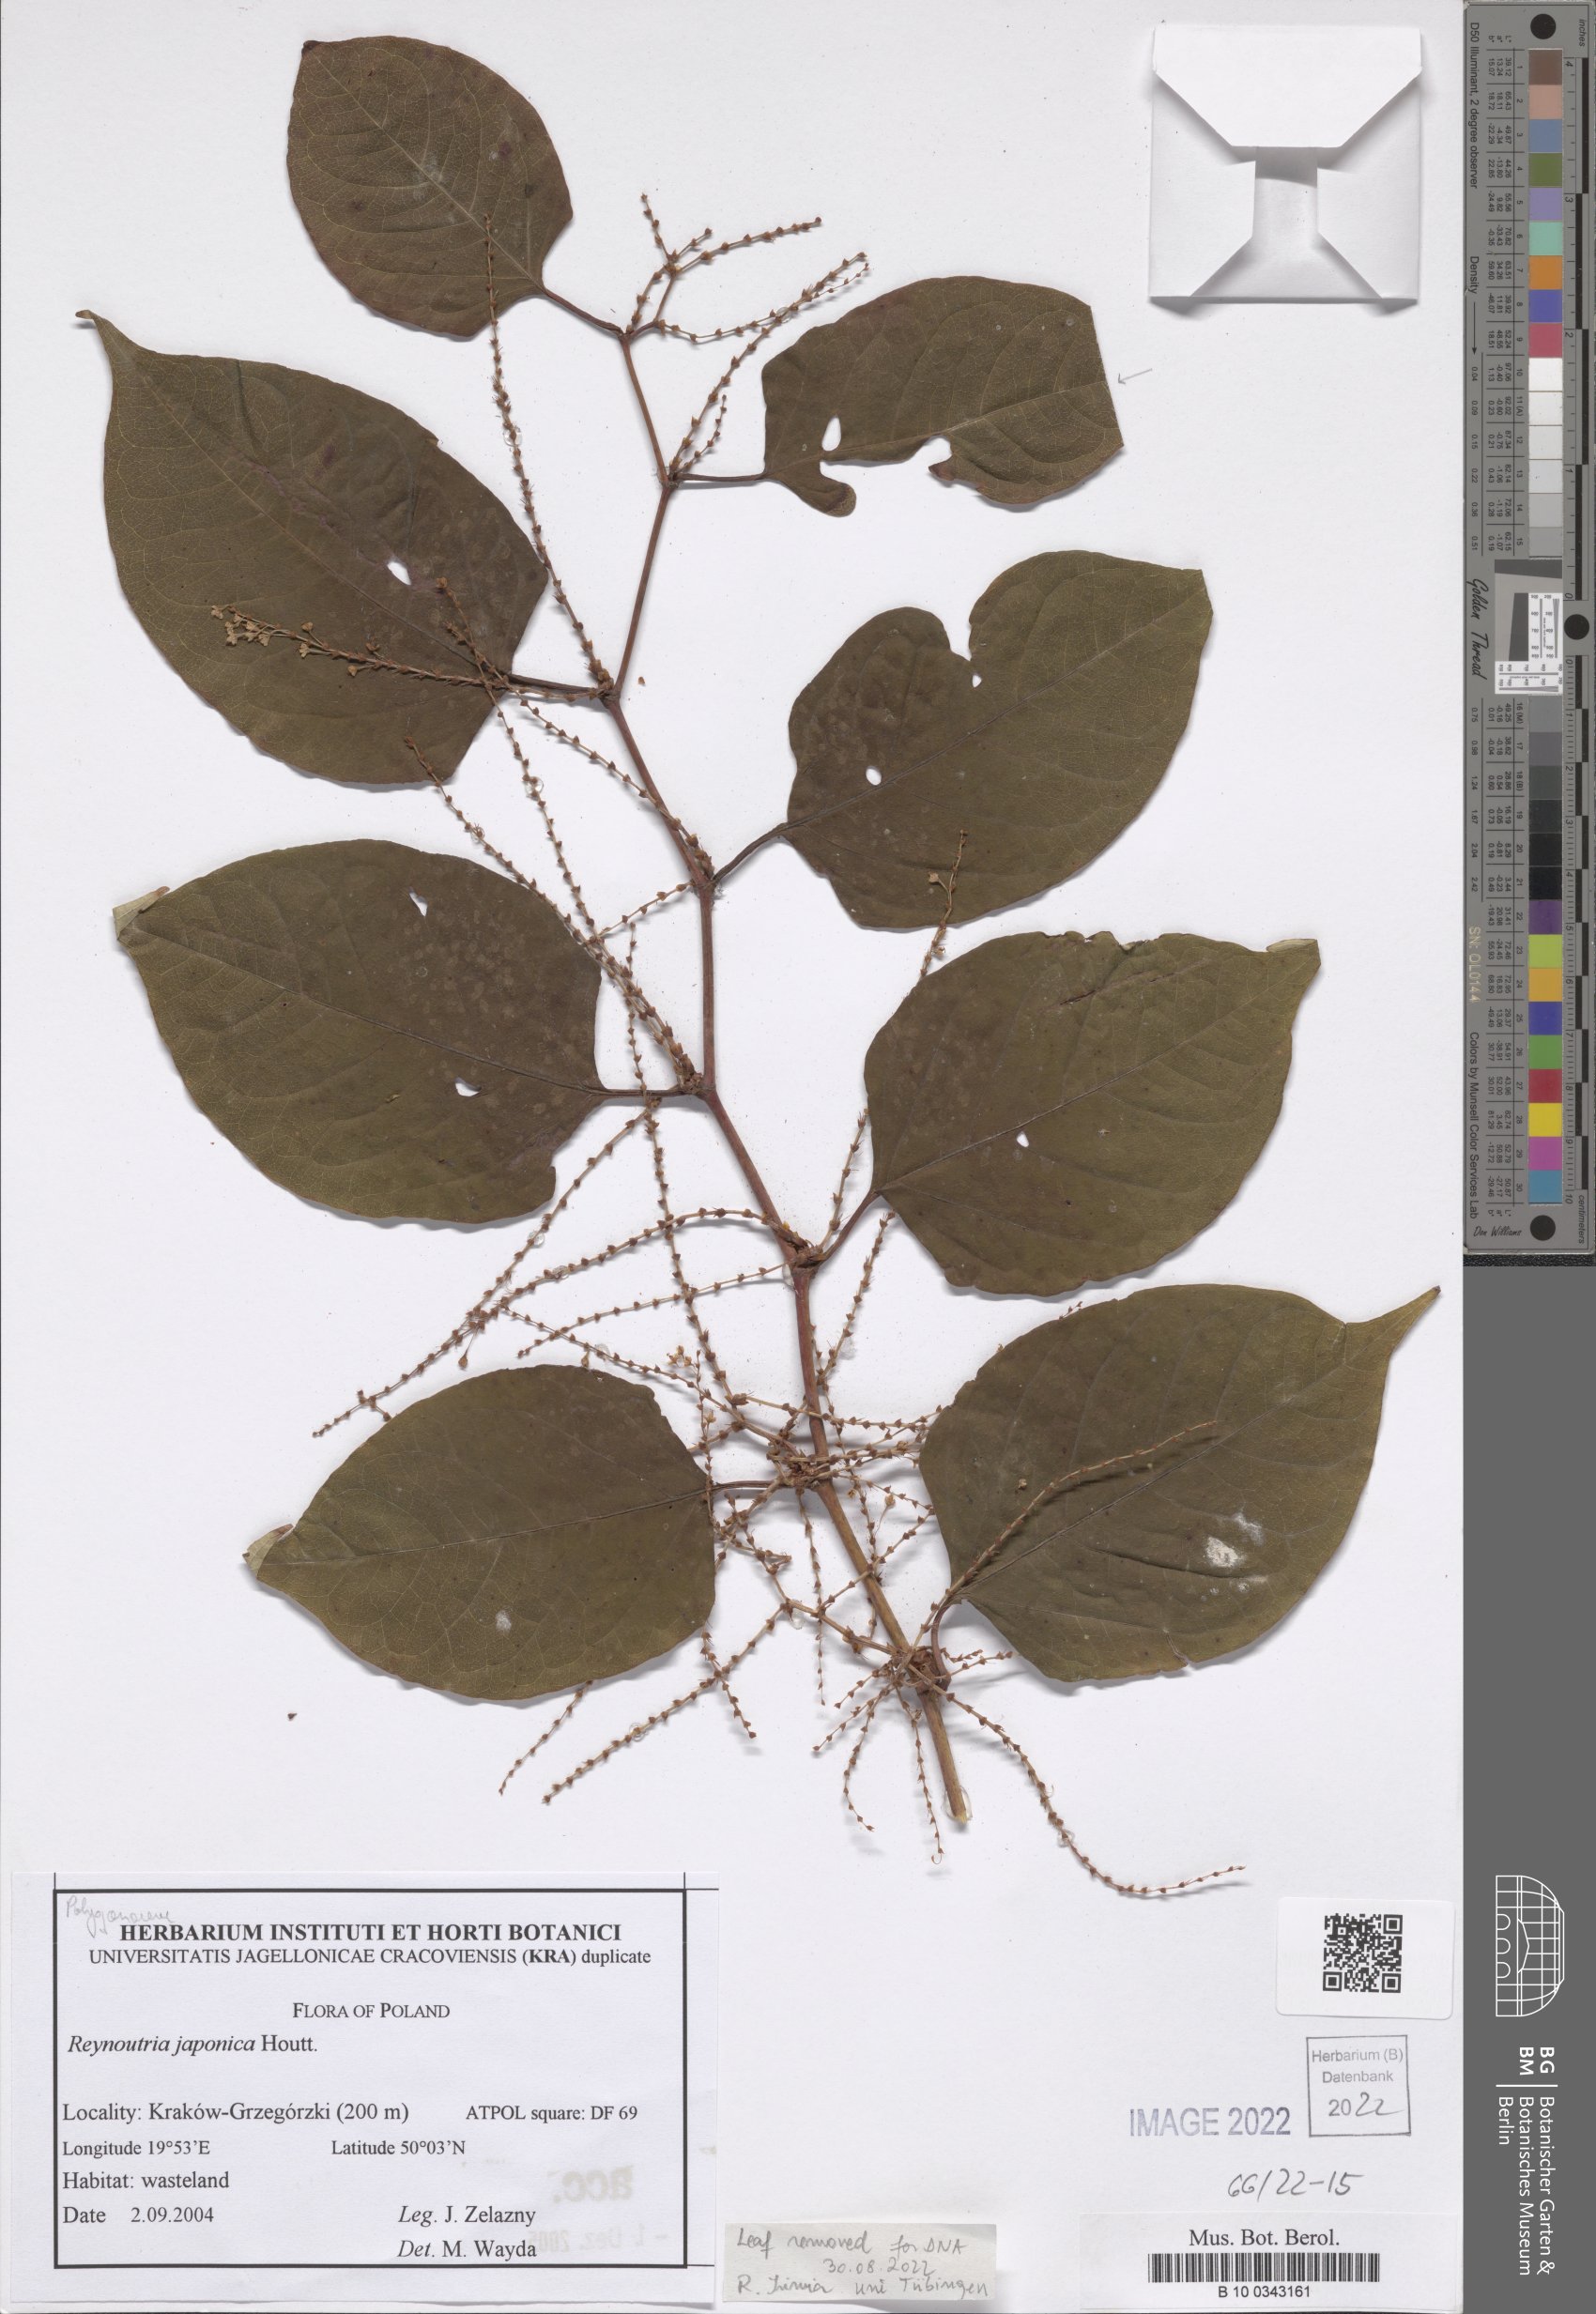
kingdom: Plantae
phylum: Tracheophyta
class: Magnoliopsida
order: Caryophyllales
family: Polygonaceae
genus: Reynoutria
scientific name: Reynoutria japonica
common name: Japanese knotweed
